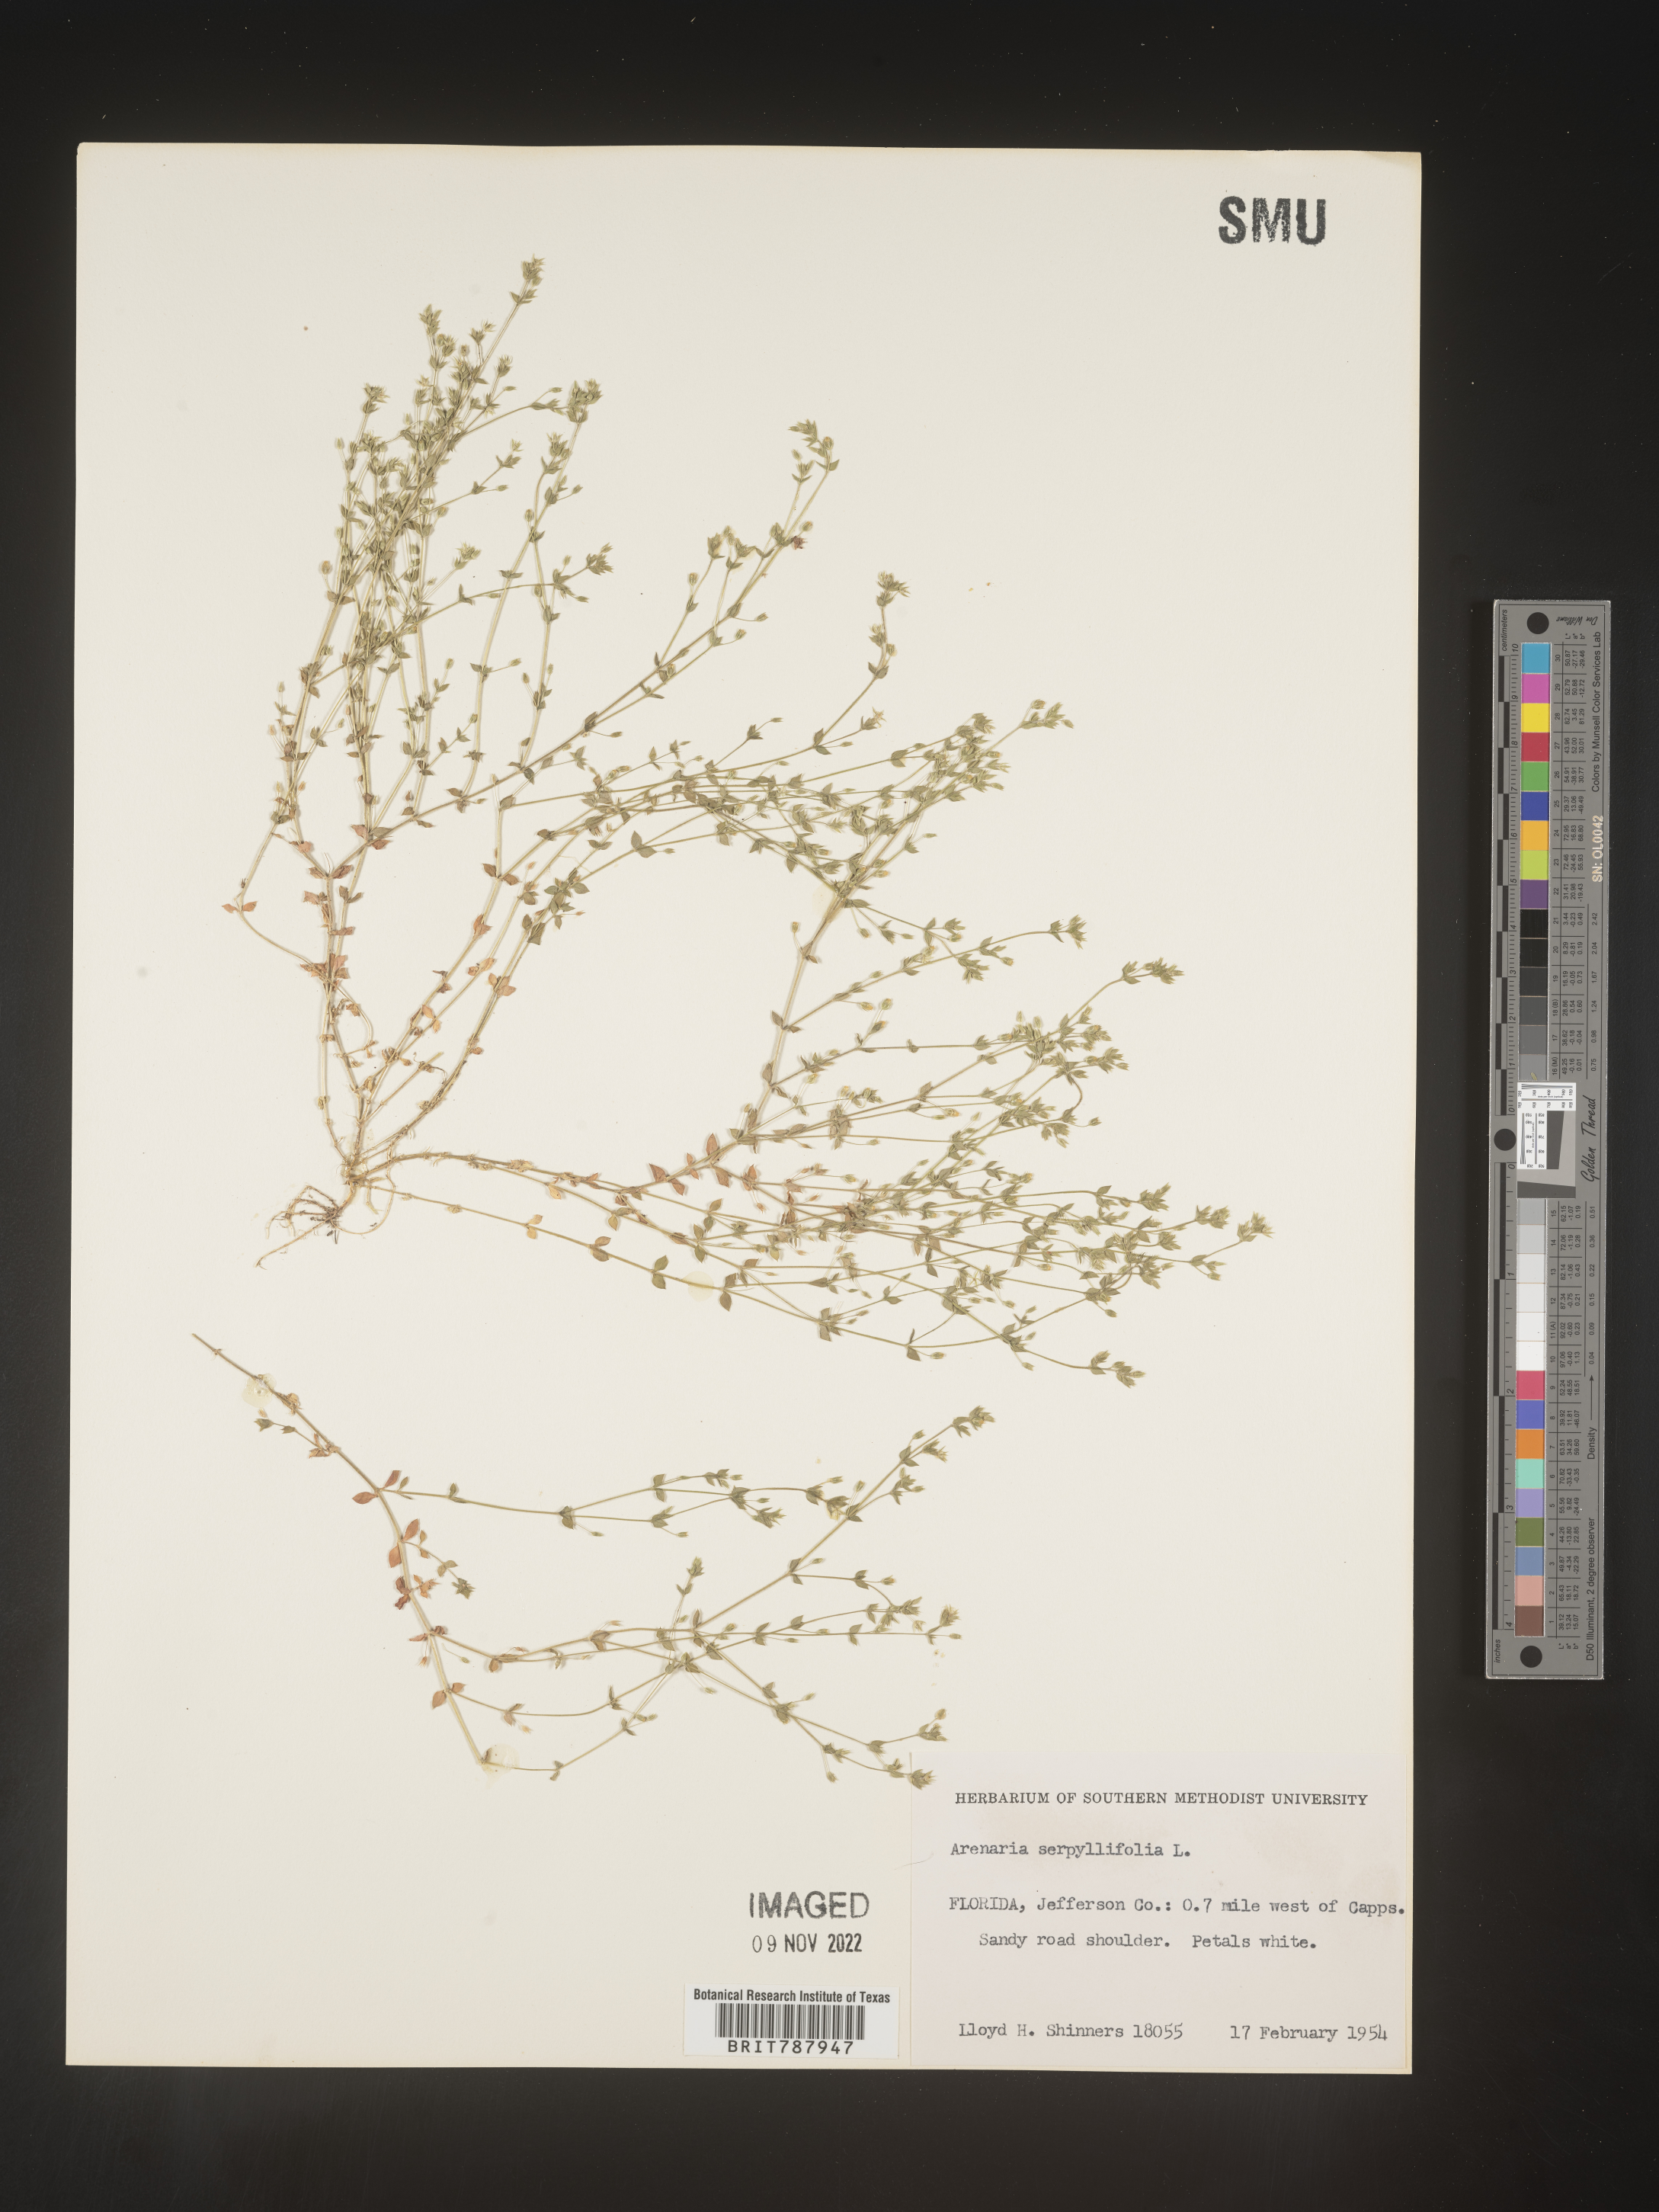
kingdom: Plantae
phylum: Tracheophyta
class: Magnoliopsida
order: Caryophyllales
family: Caryophyllaceae
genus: Arenaria
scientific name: Arenaria serpyllifolia
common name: Thyme-leaved sandwort
